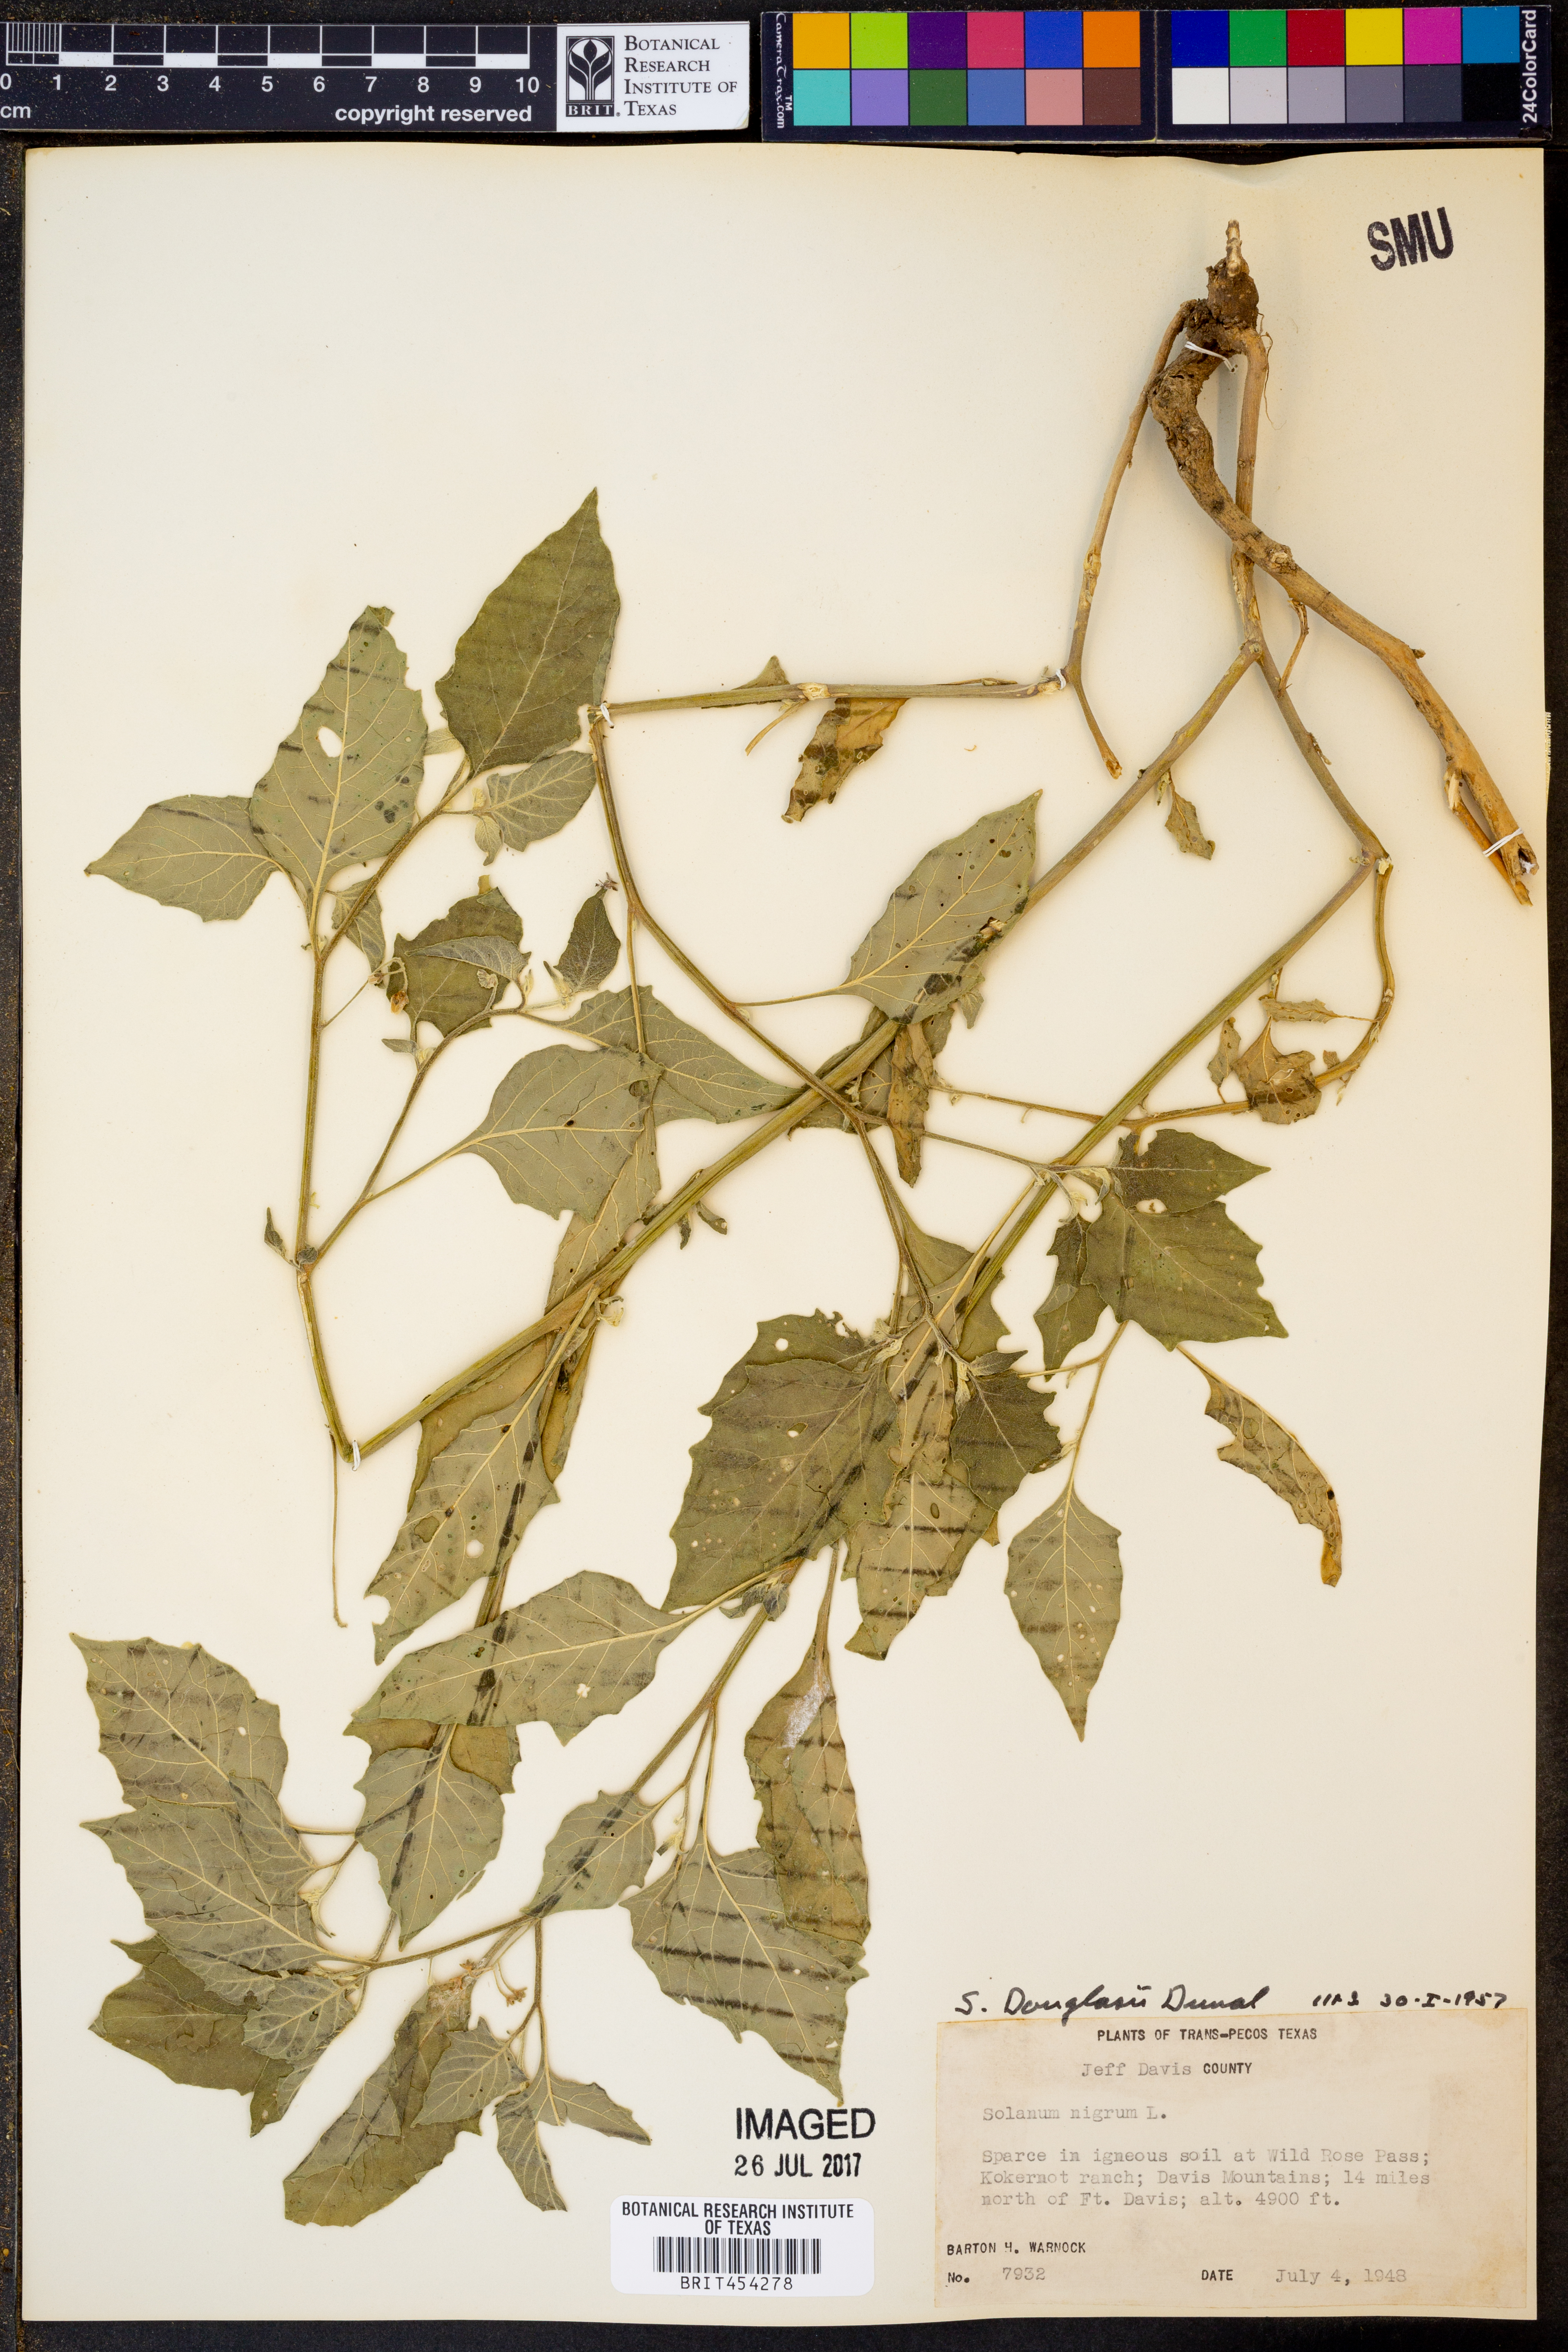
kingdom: Plantae
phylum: Tracheophyta
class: Magnoliopsida
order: Solanales
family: Solanaceae
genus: Solanum
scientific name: Solanum douglasii
